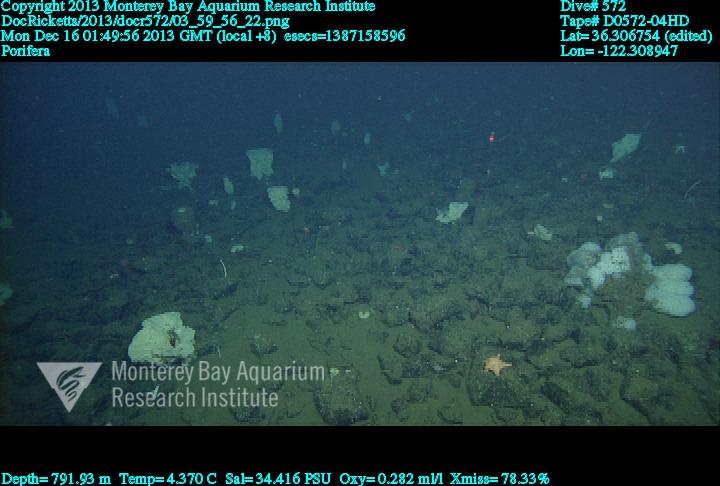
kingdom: Animalia
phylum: Porifera
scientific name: Porifera
